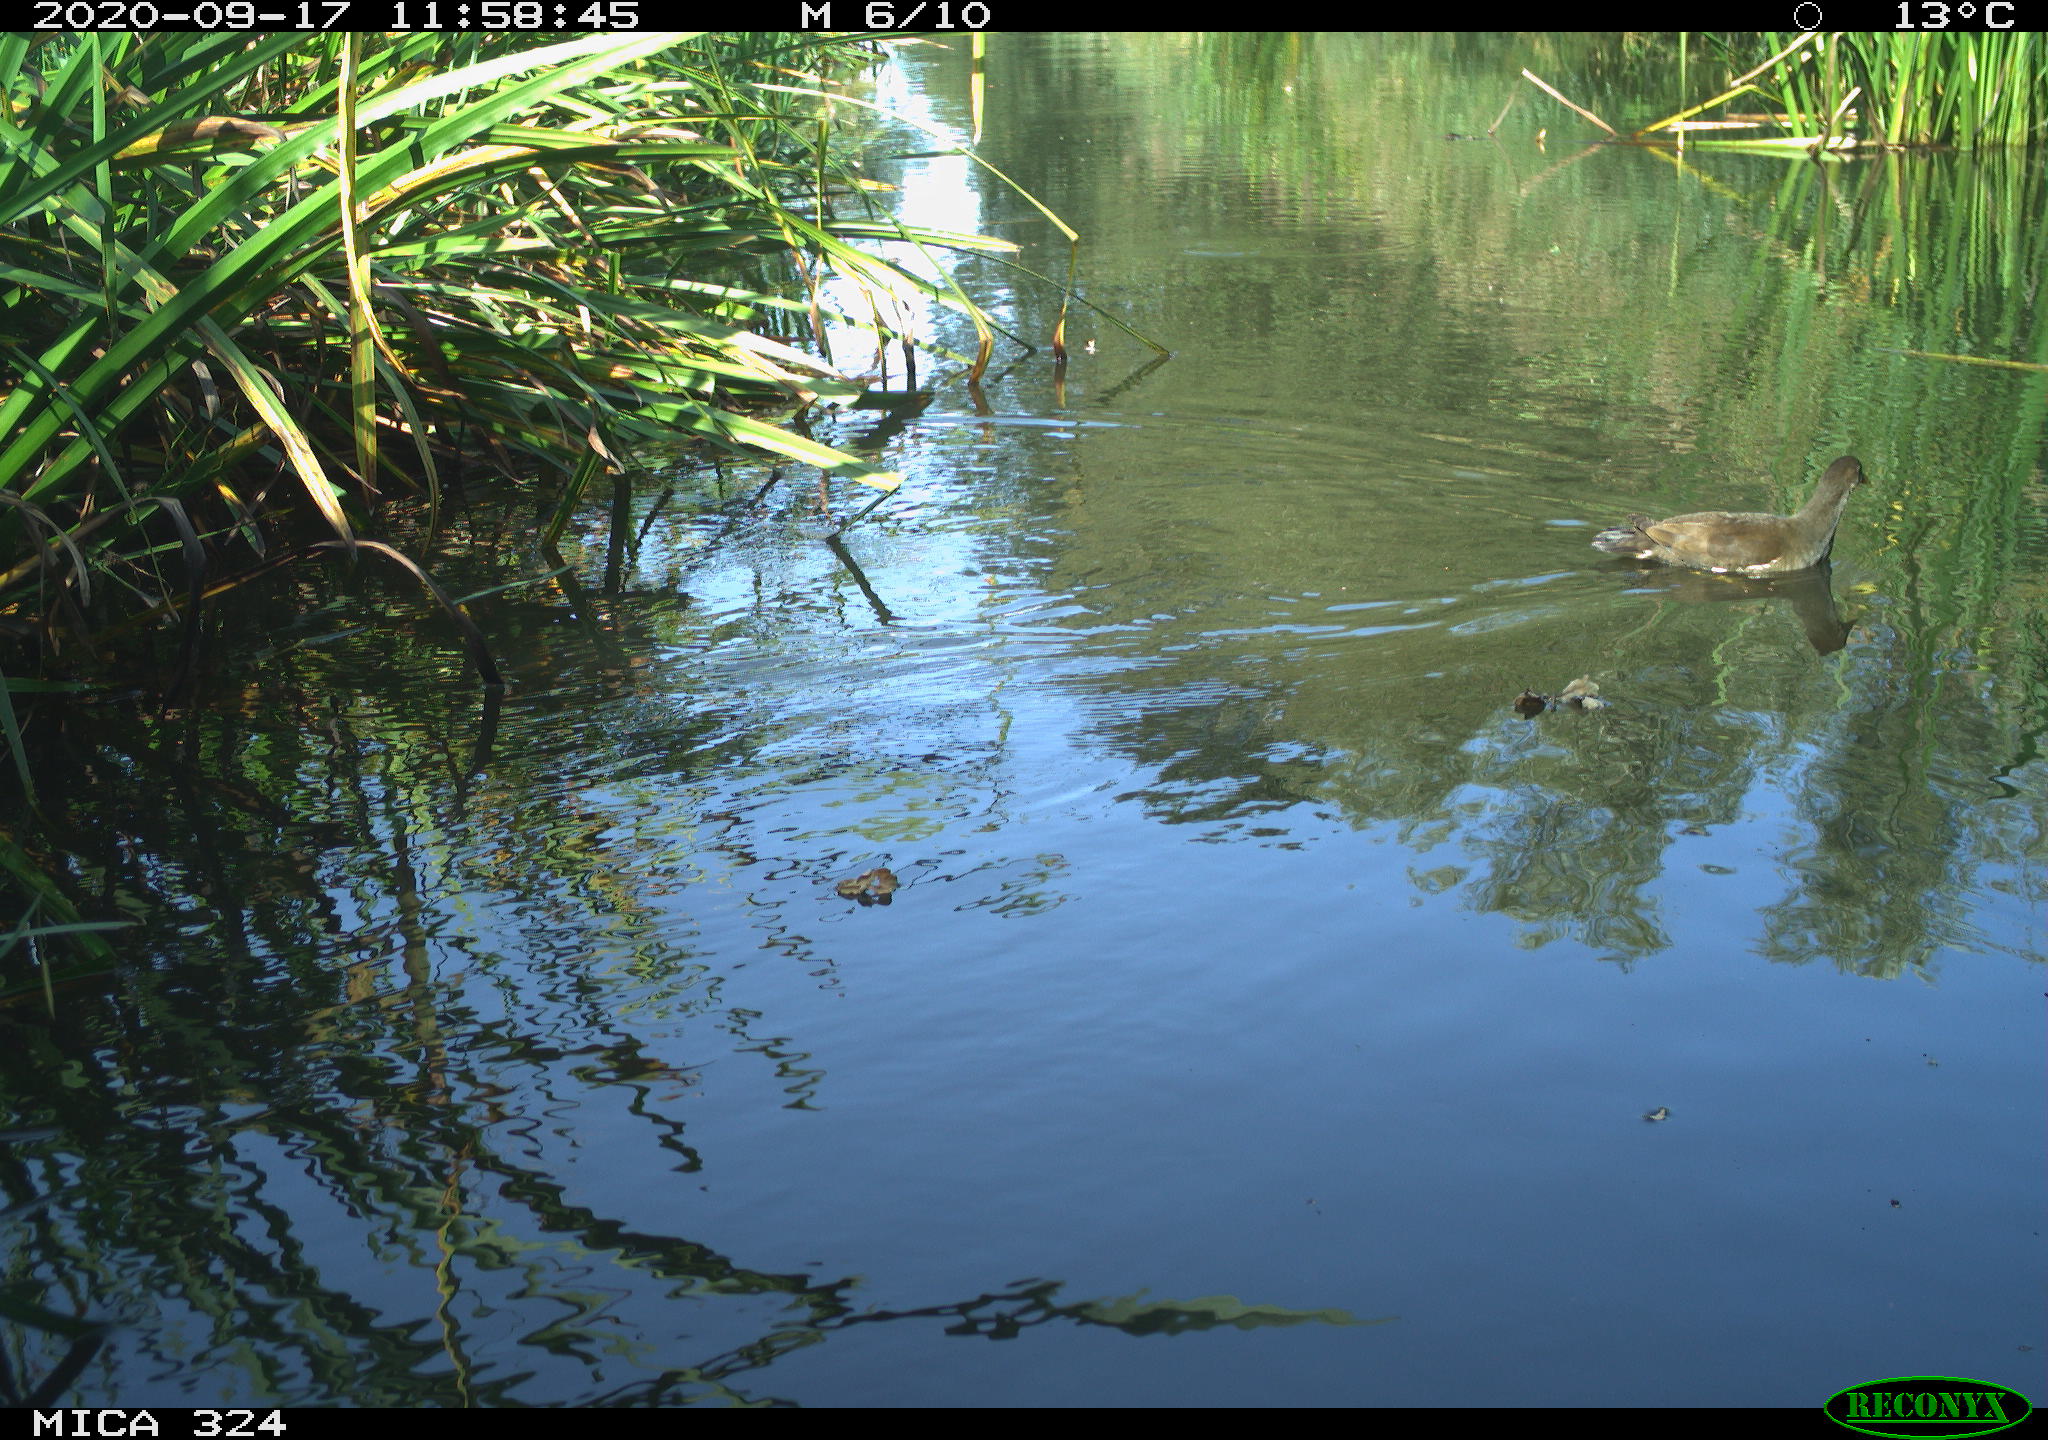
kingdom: Animalia
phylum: Chordata
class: Aves
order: Gruiformes
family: Rallidae
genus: Gallinula
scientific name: Gallinula chloropus
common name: Common moorhen
